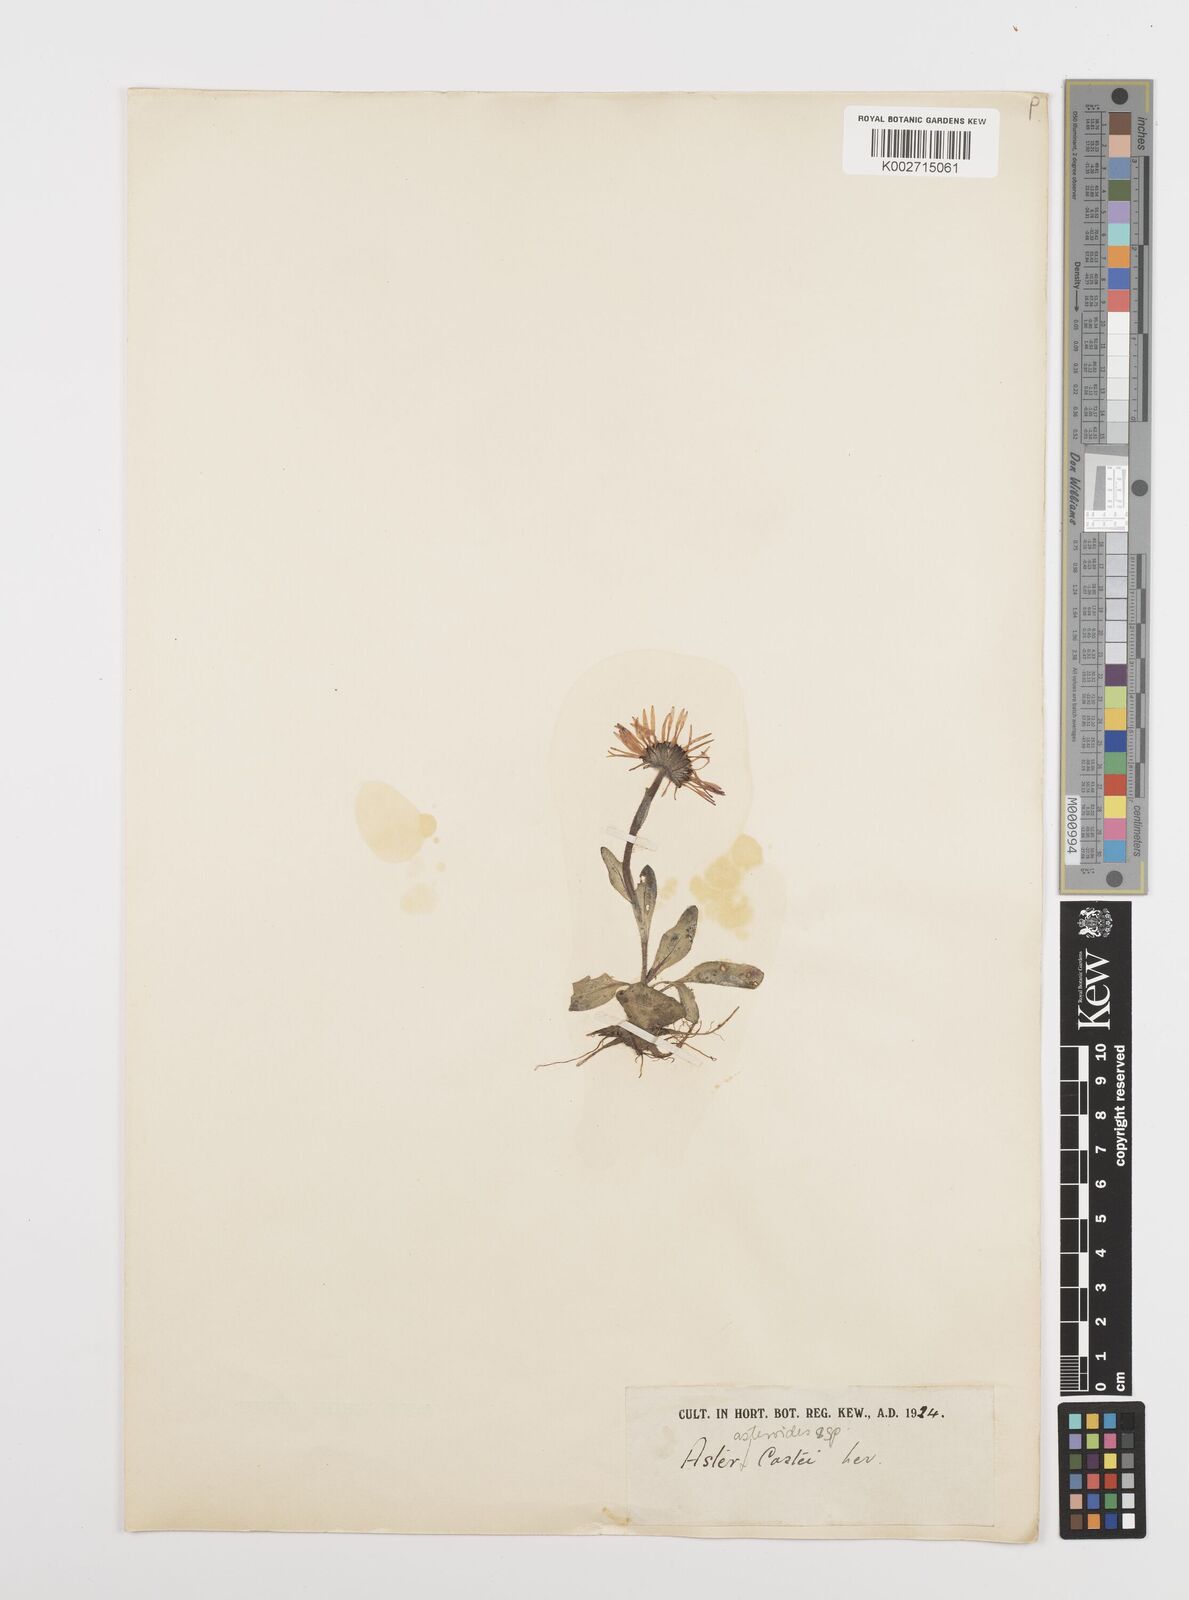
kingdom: Plantae
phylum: Tracheophyta
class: Magnoliopsida
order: Asterales
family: Asteraceae
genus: Aster
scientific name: Aster
